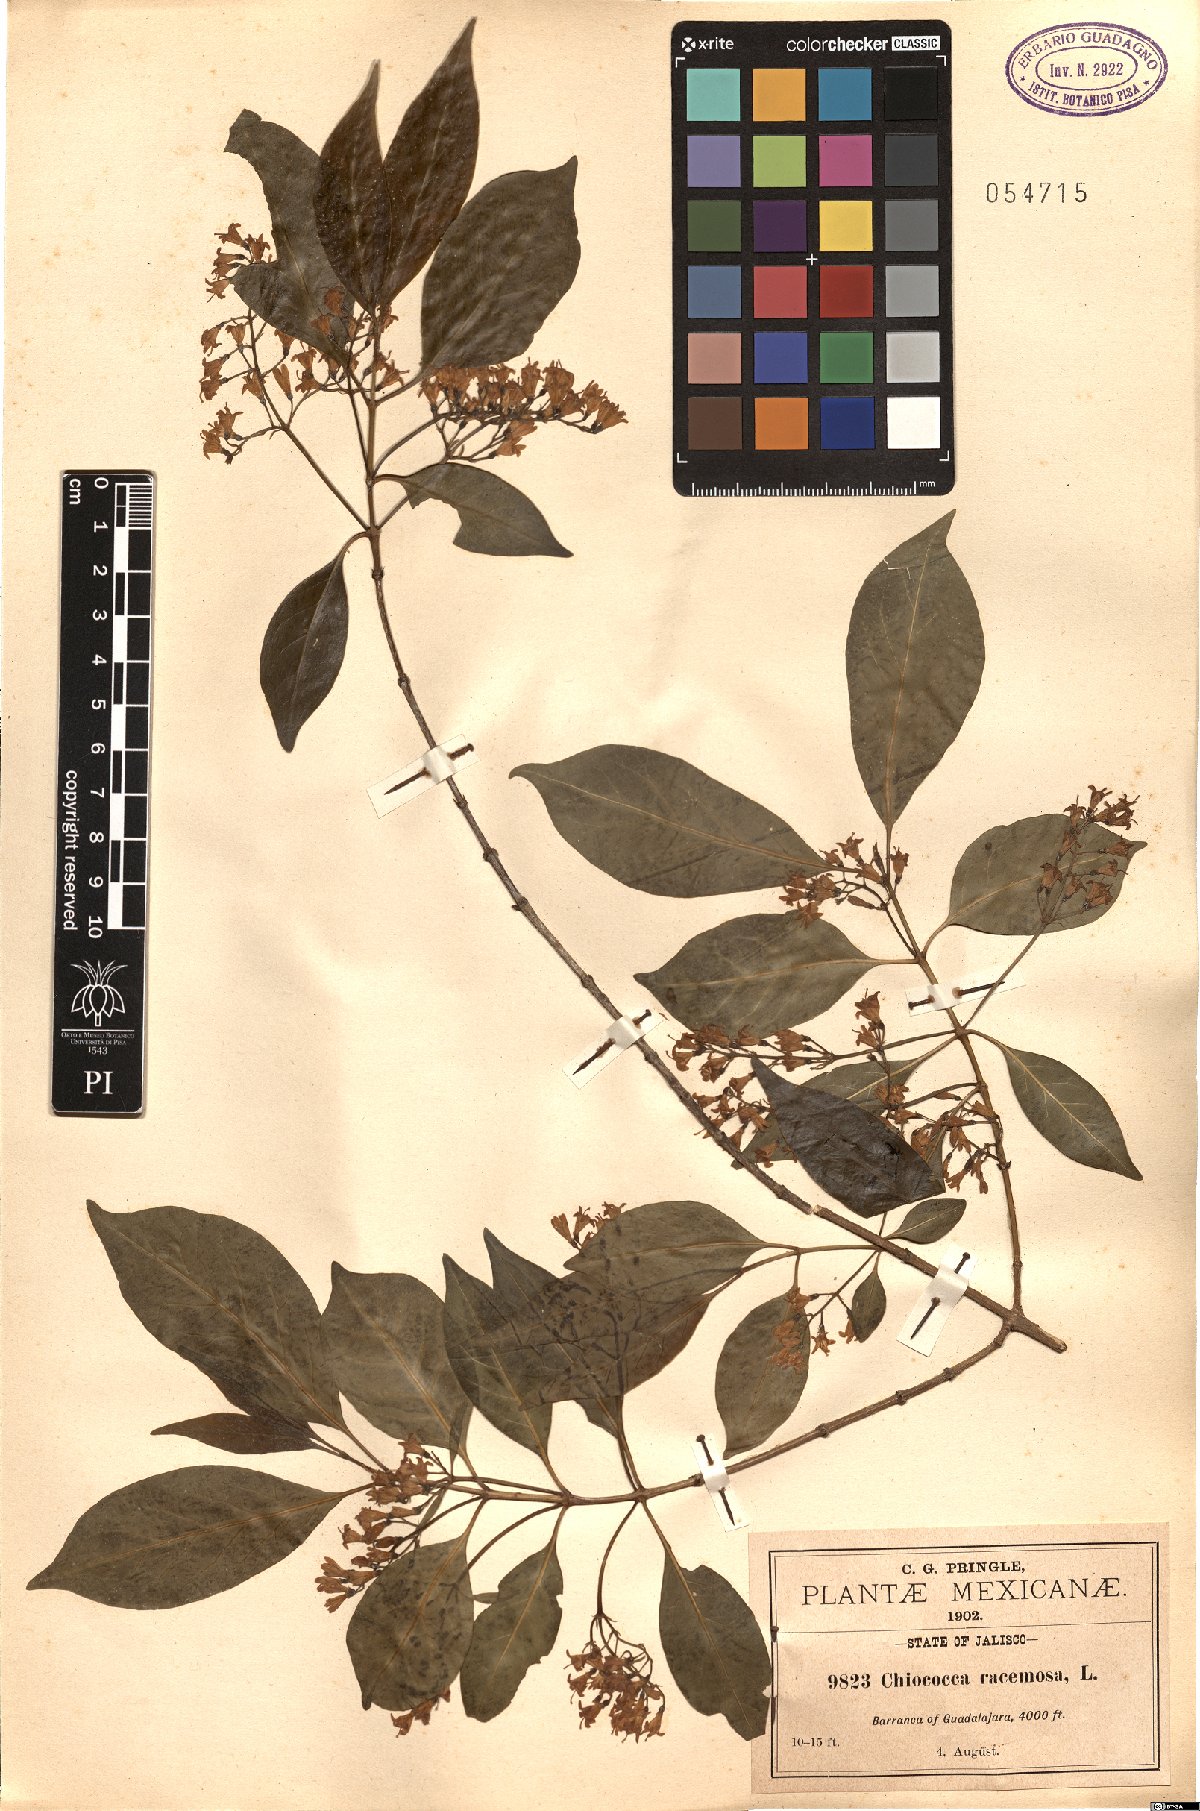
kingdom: Plantae
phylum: Tracheophyta
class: Magnoliopsida
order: Gentianales
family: Rubiaceae
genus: Chiococca
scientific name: Chiococca alba
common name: Snowberry
